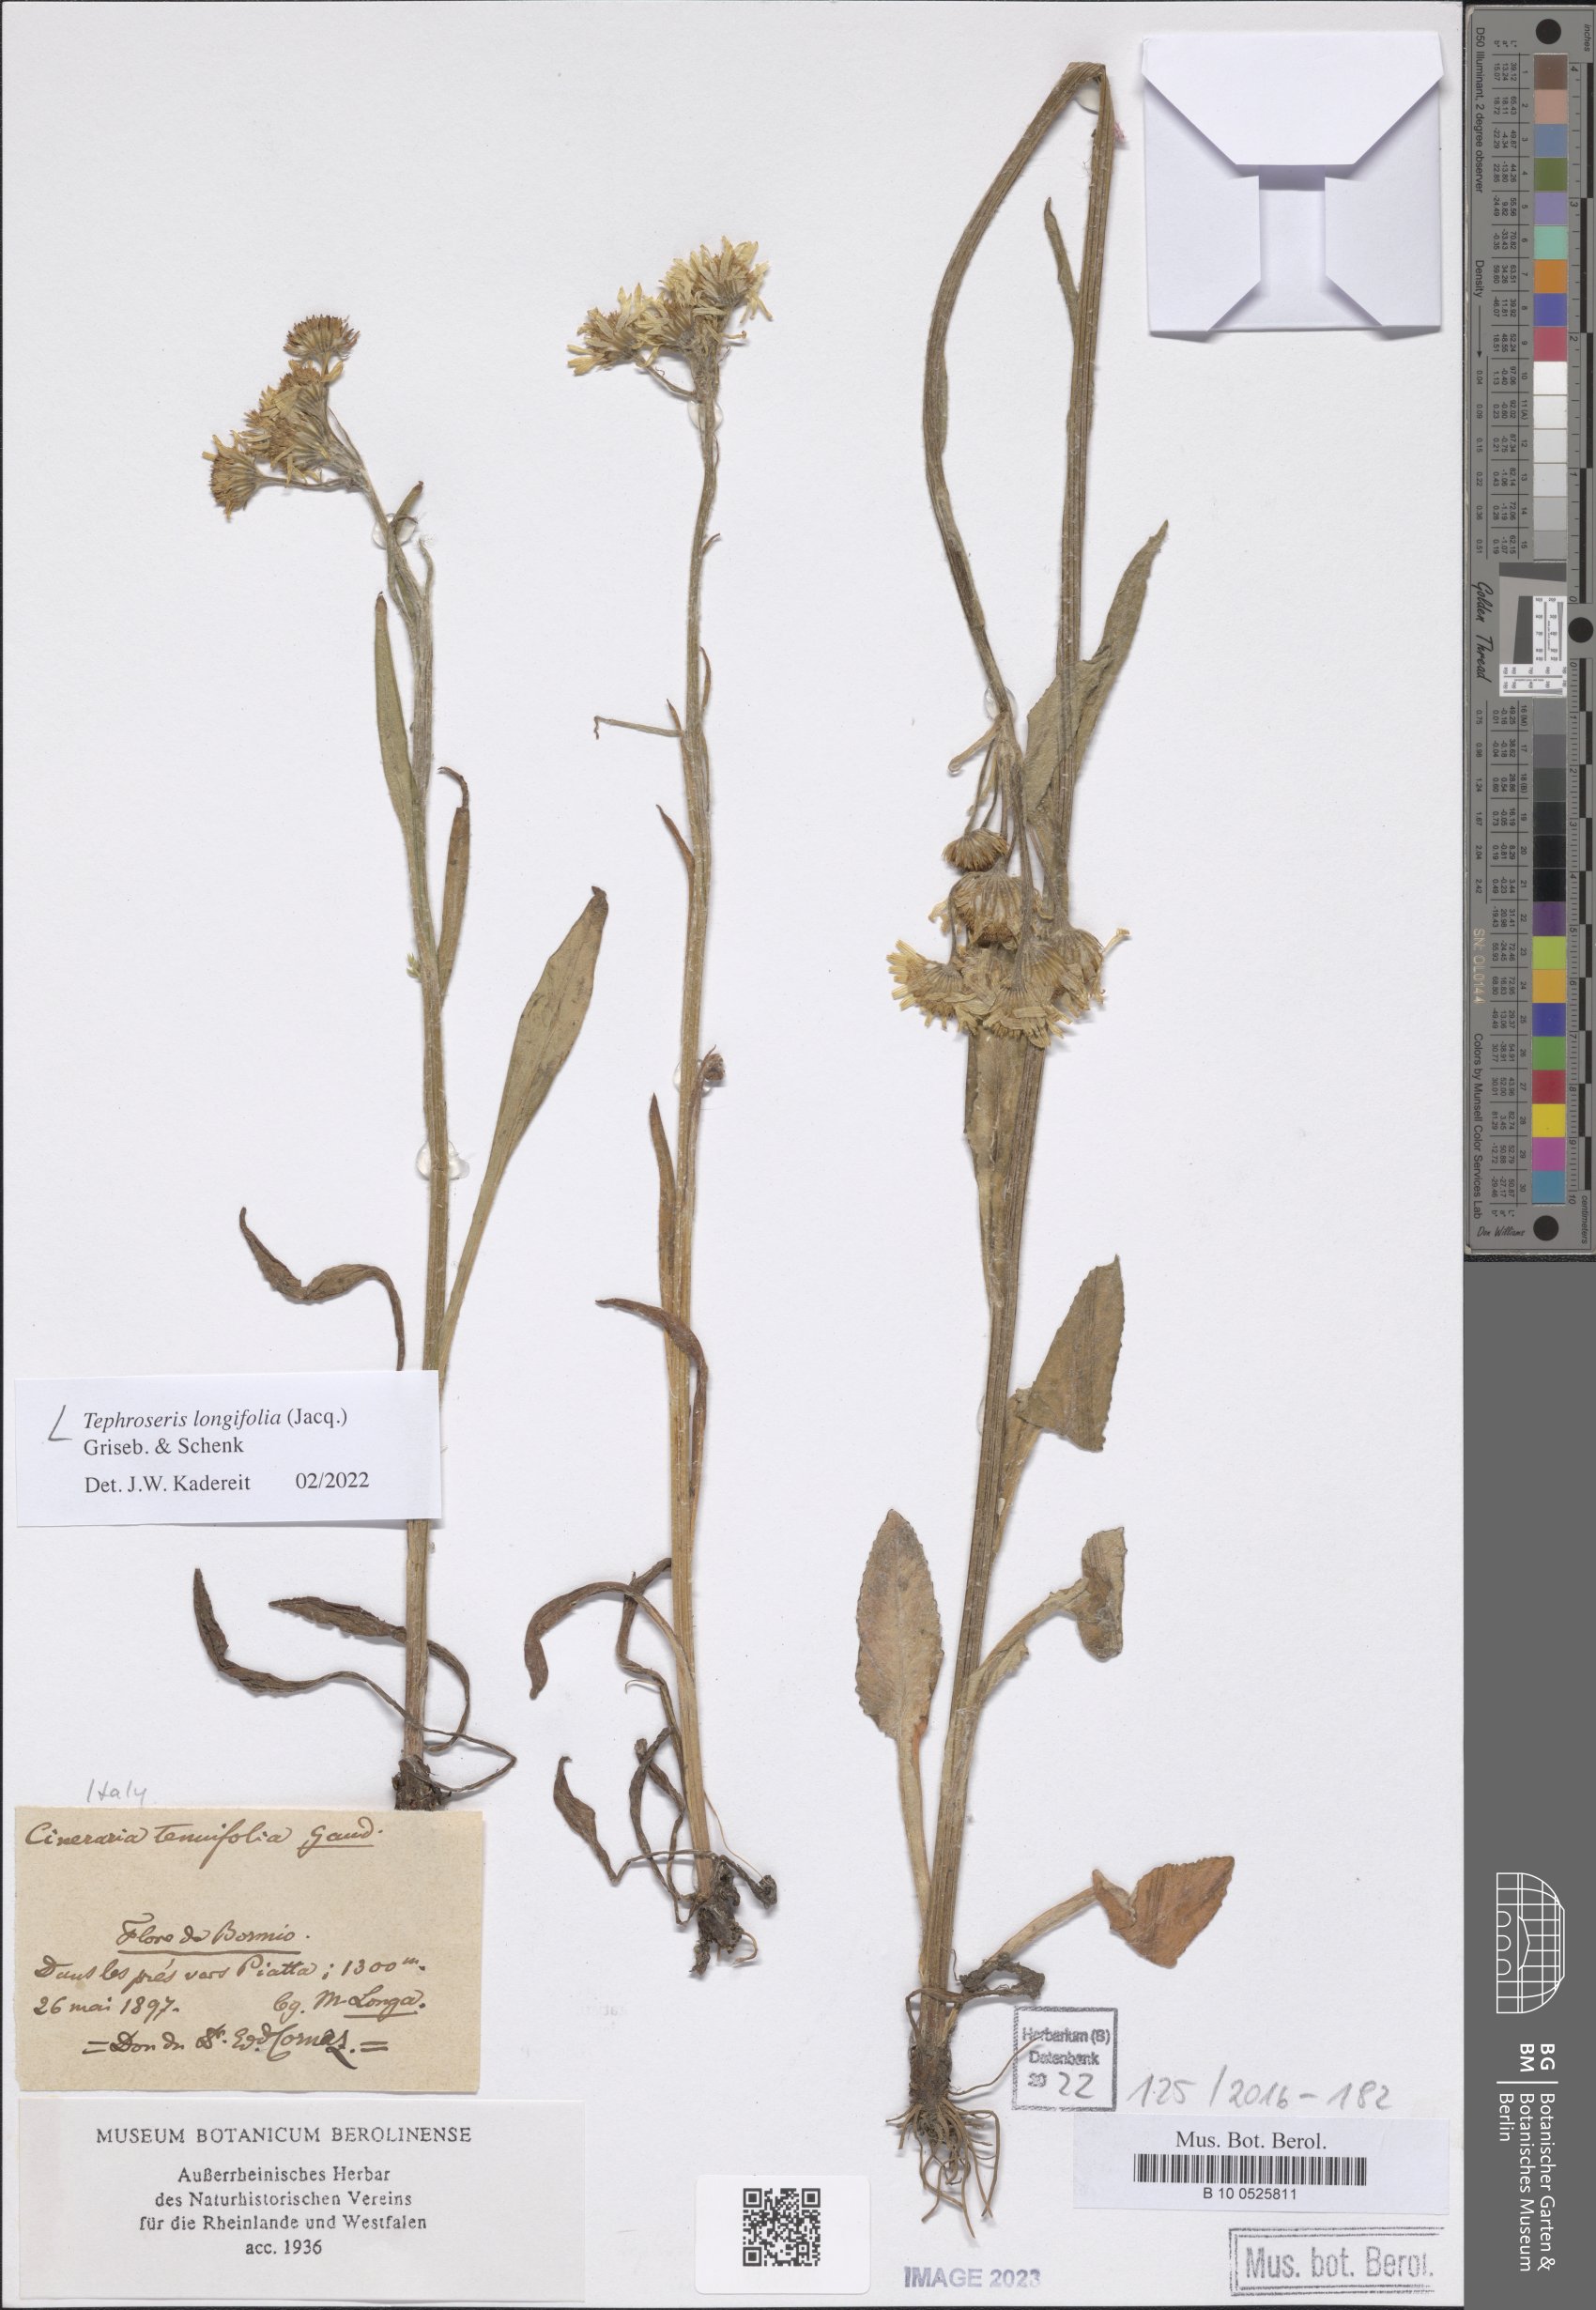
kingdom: Plantae
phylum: Tracheophyta
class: Magnoliopsida
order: Asterales
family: Asteraceae
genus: Tephroseris
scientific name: Tephroseris longifolia
